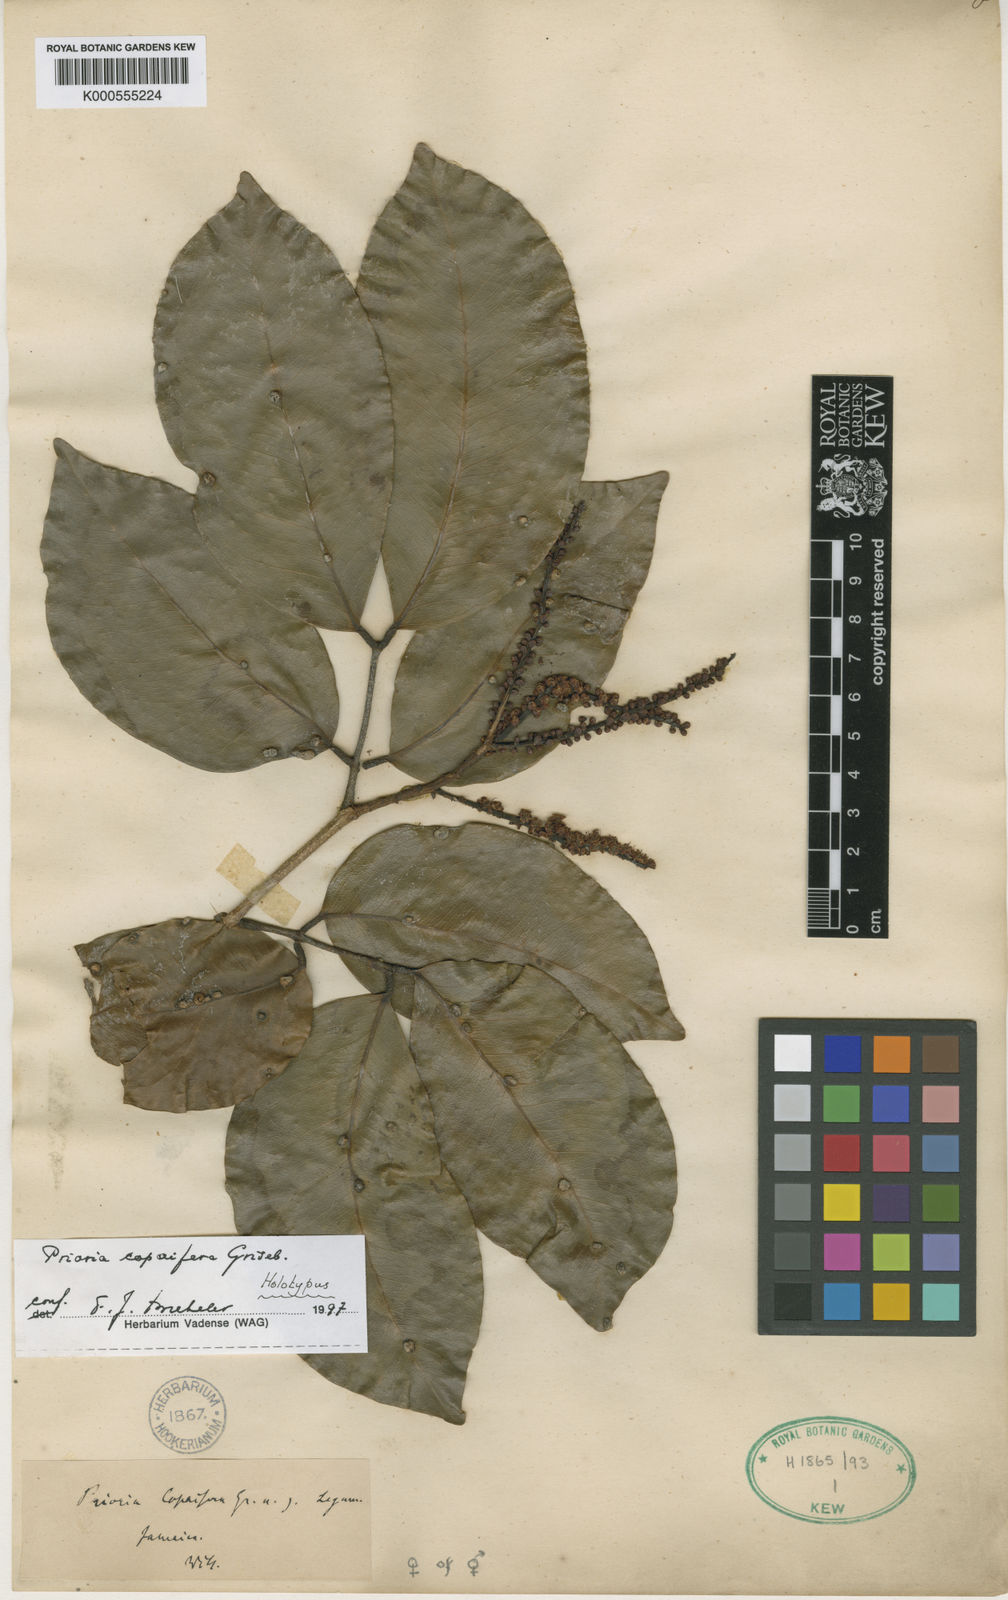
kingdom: Plantae
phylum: Tracheophyta
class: Magnoliopsida
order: Fabales
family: Fabaceae
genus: Prioria
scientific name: Prioria copaifera
